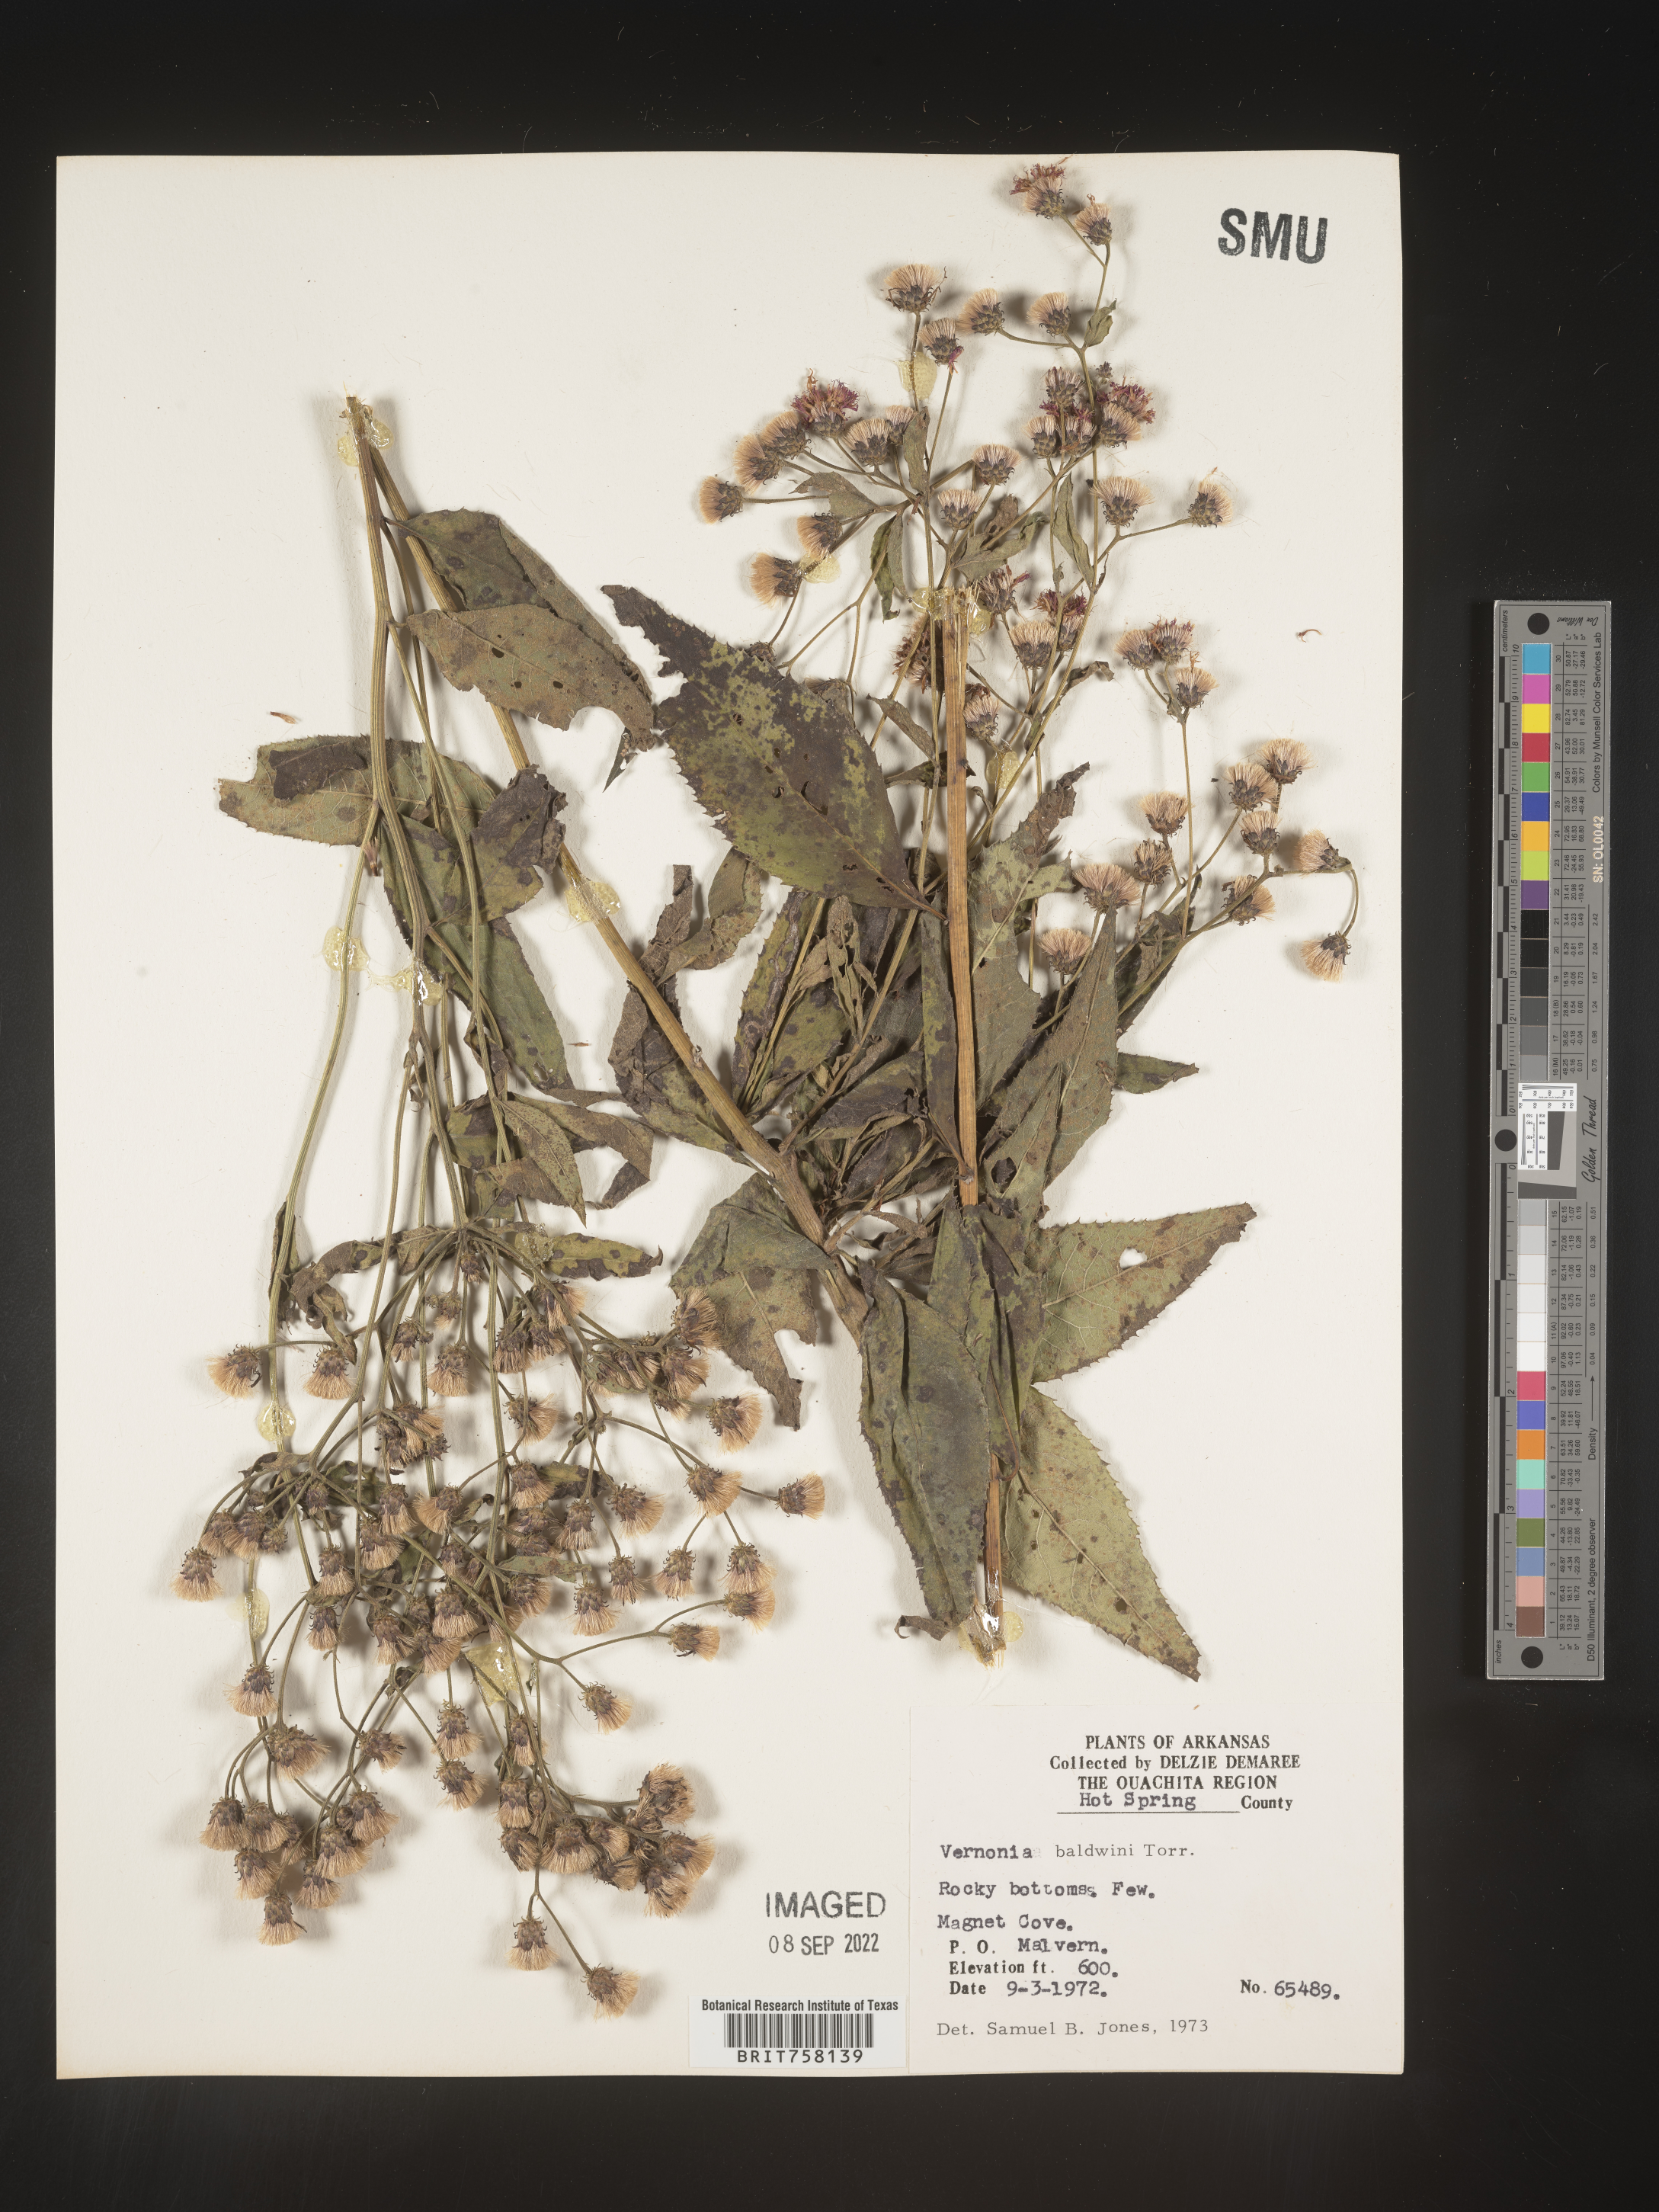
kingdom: Plantae
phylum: Tracheophyta
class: Magnoliopsida
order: Asterales
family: Asteraceae
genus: Vernonia
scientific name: Vernonia baldwinii
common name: Western ironweed
